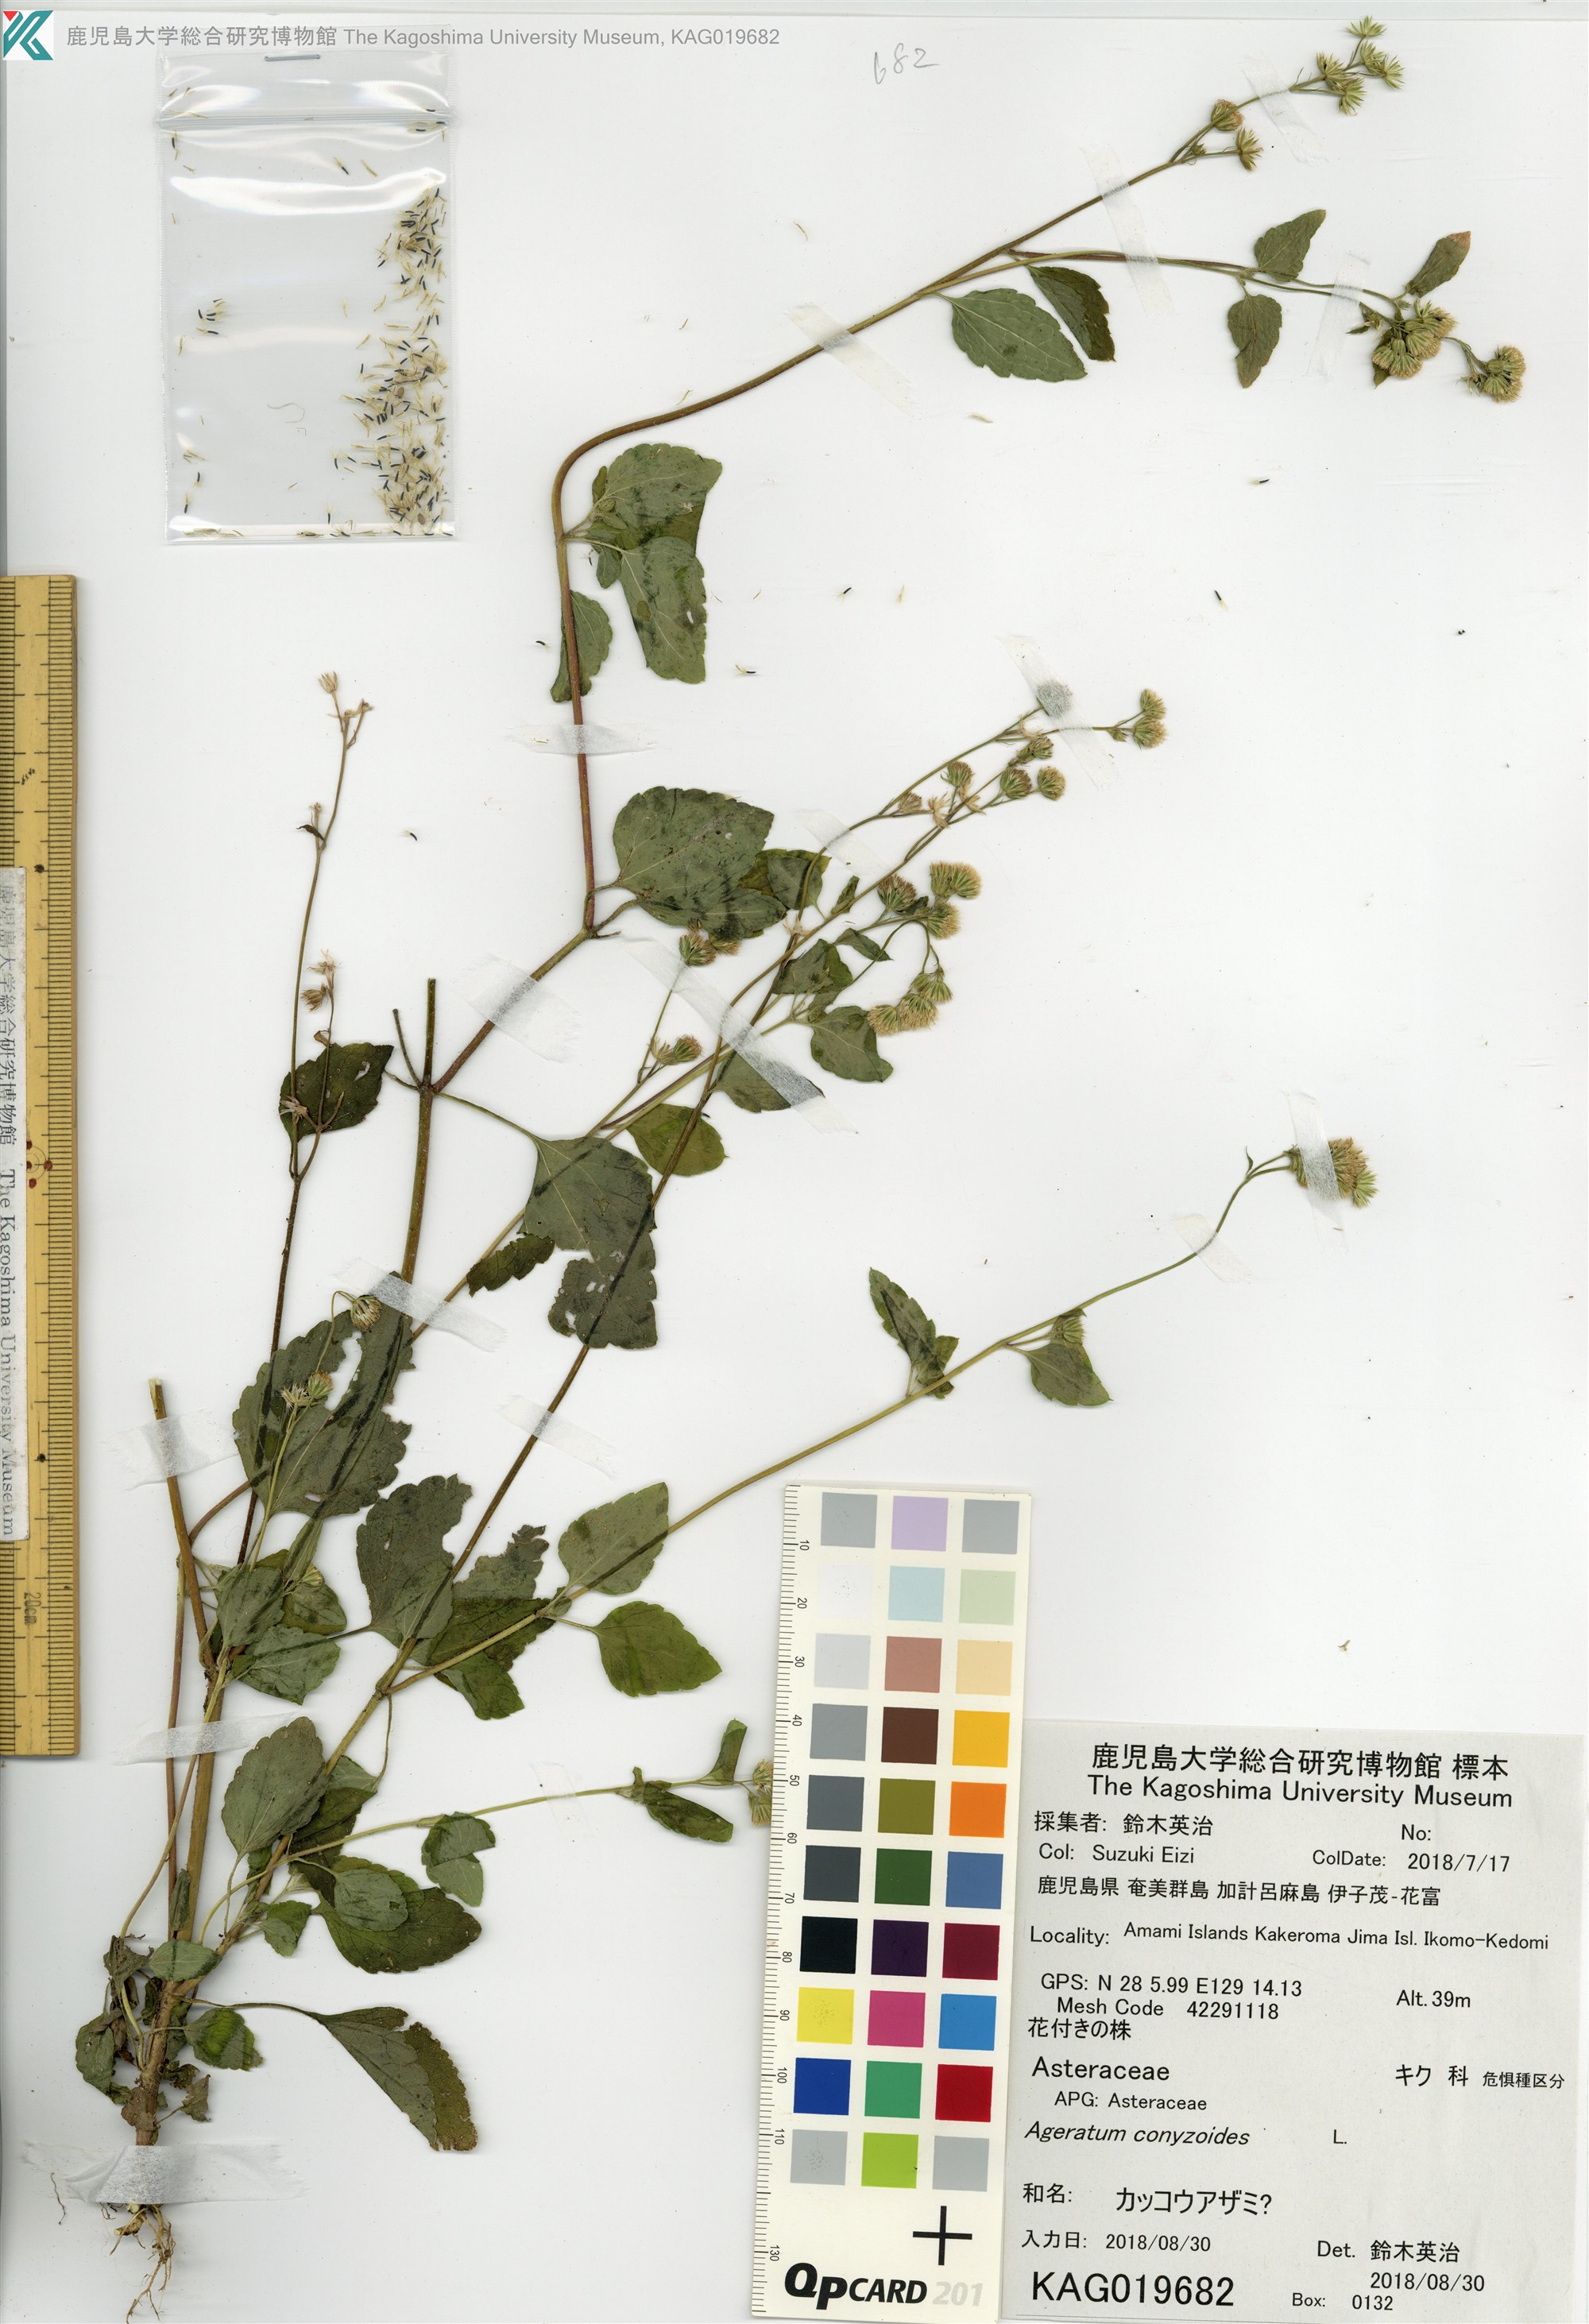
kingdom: Plantae
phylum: Tracheophyta
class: Magnoliopsida
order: Asterales
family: Asteraceae
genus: Ageratum
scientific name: Ageratum conyzoides
